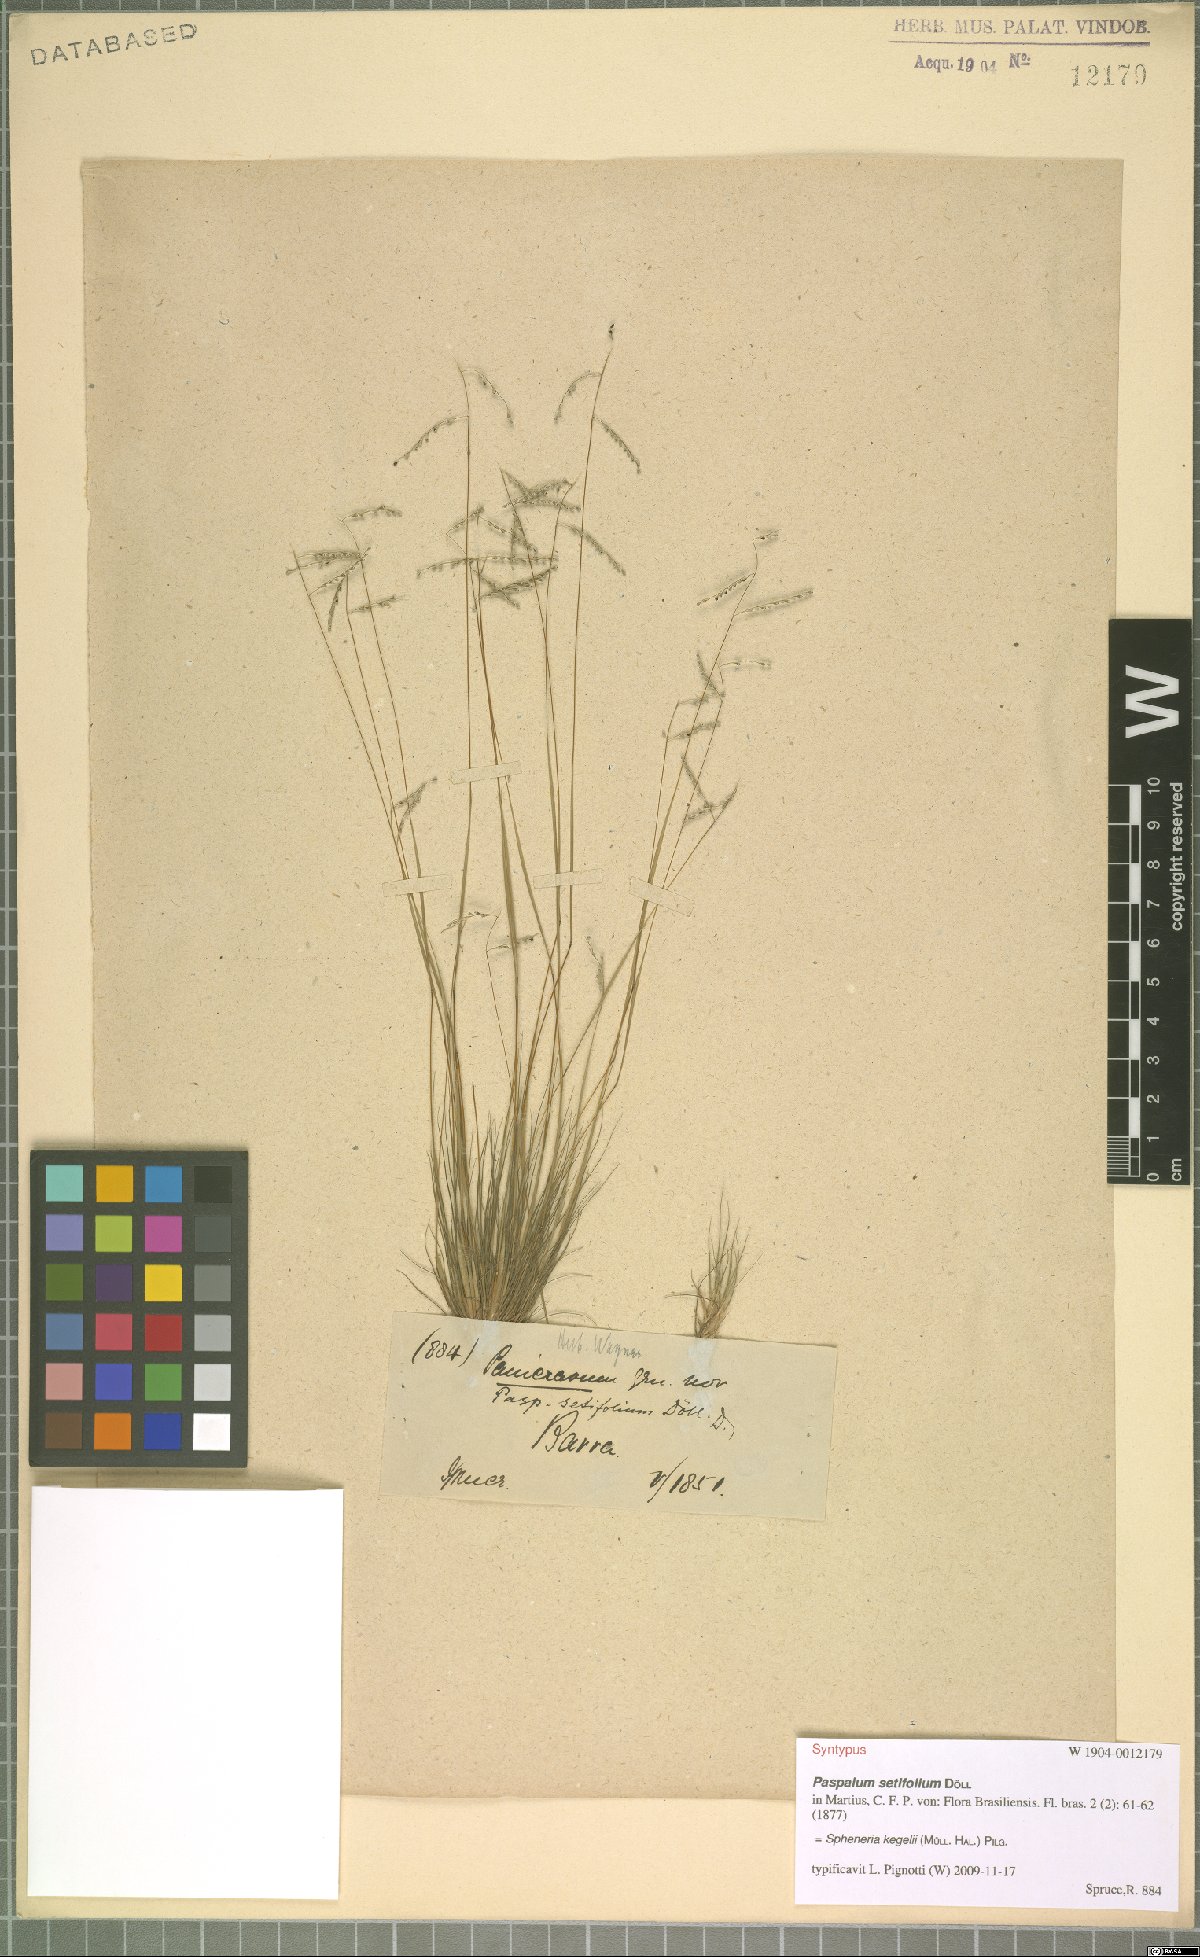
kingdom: Plantae
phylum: Tracheophyta
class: Liliopsida
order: Poales
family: Poaceae
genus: Spheneria
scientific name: Spheneria kegelii
